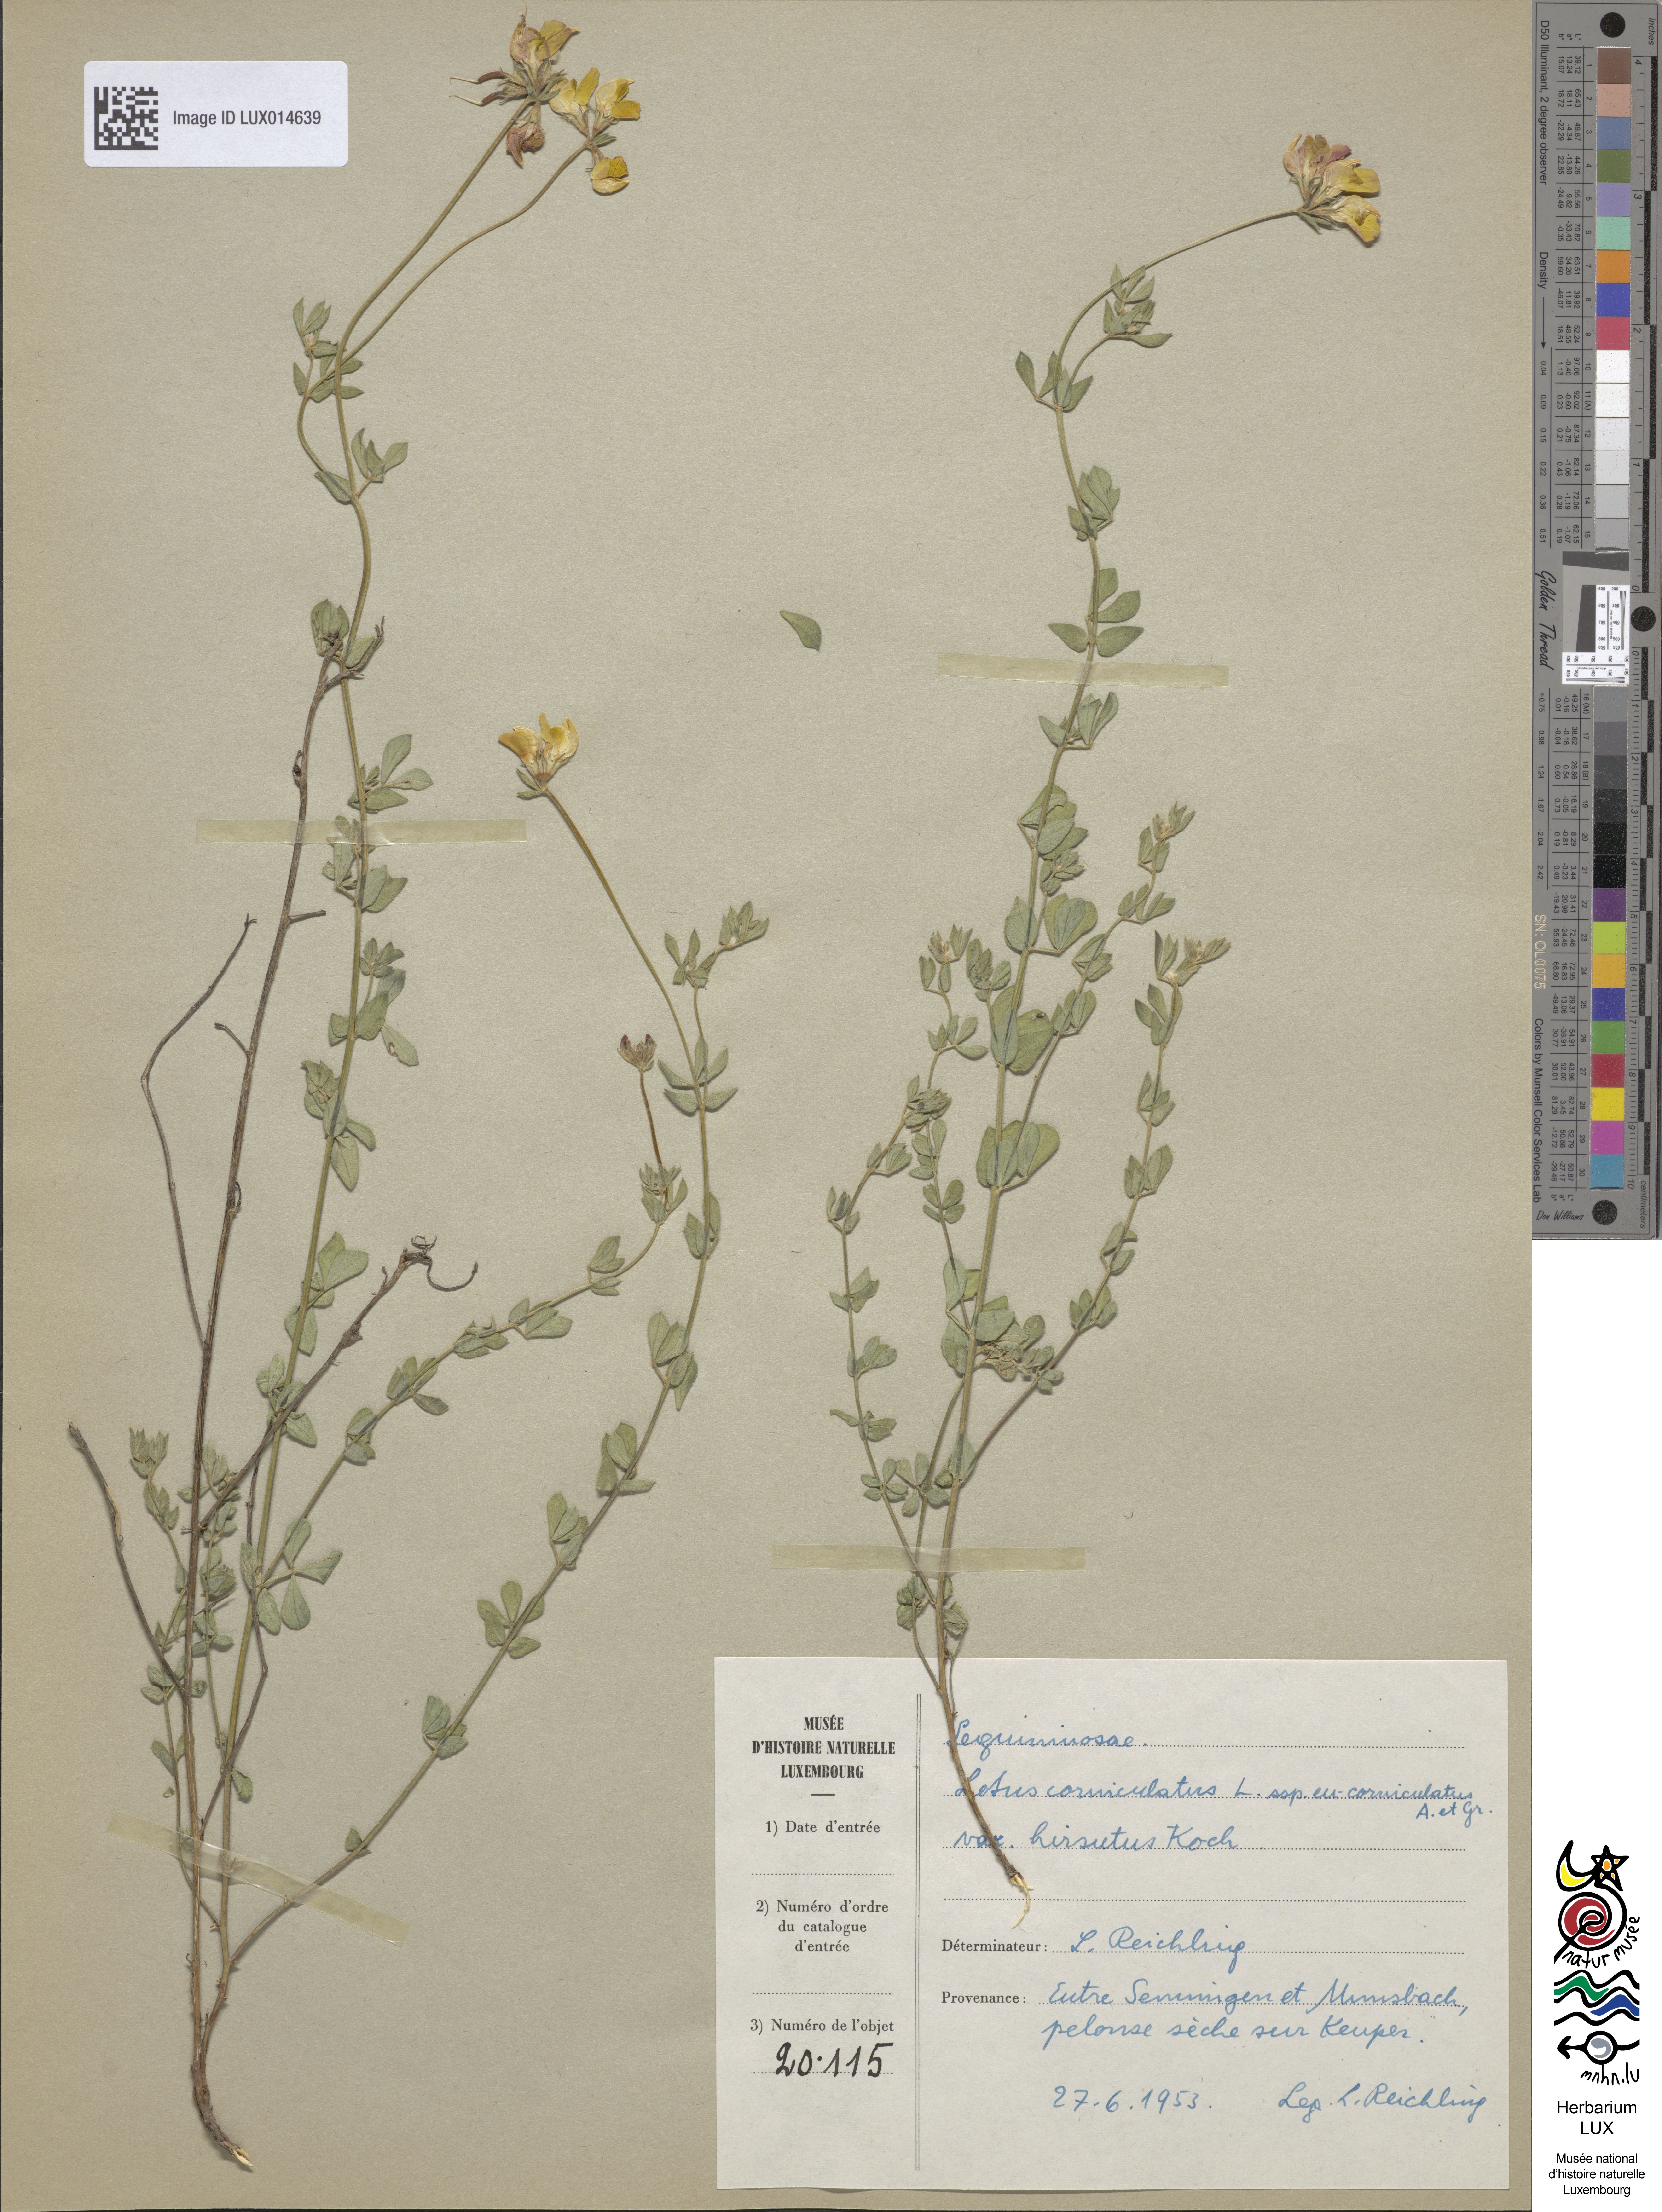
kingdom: Plantae
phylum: Tracheophyta
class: Magnoliopsida
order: Fabales
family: Fabaceae
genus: Lotus
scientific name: Lotus corniculatus
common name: Common bird's-foot-trefoil
